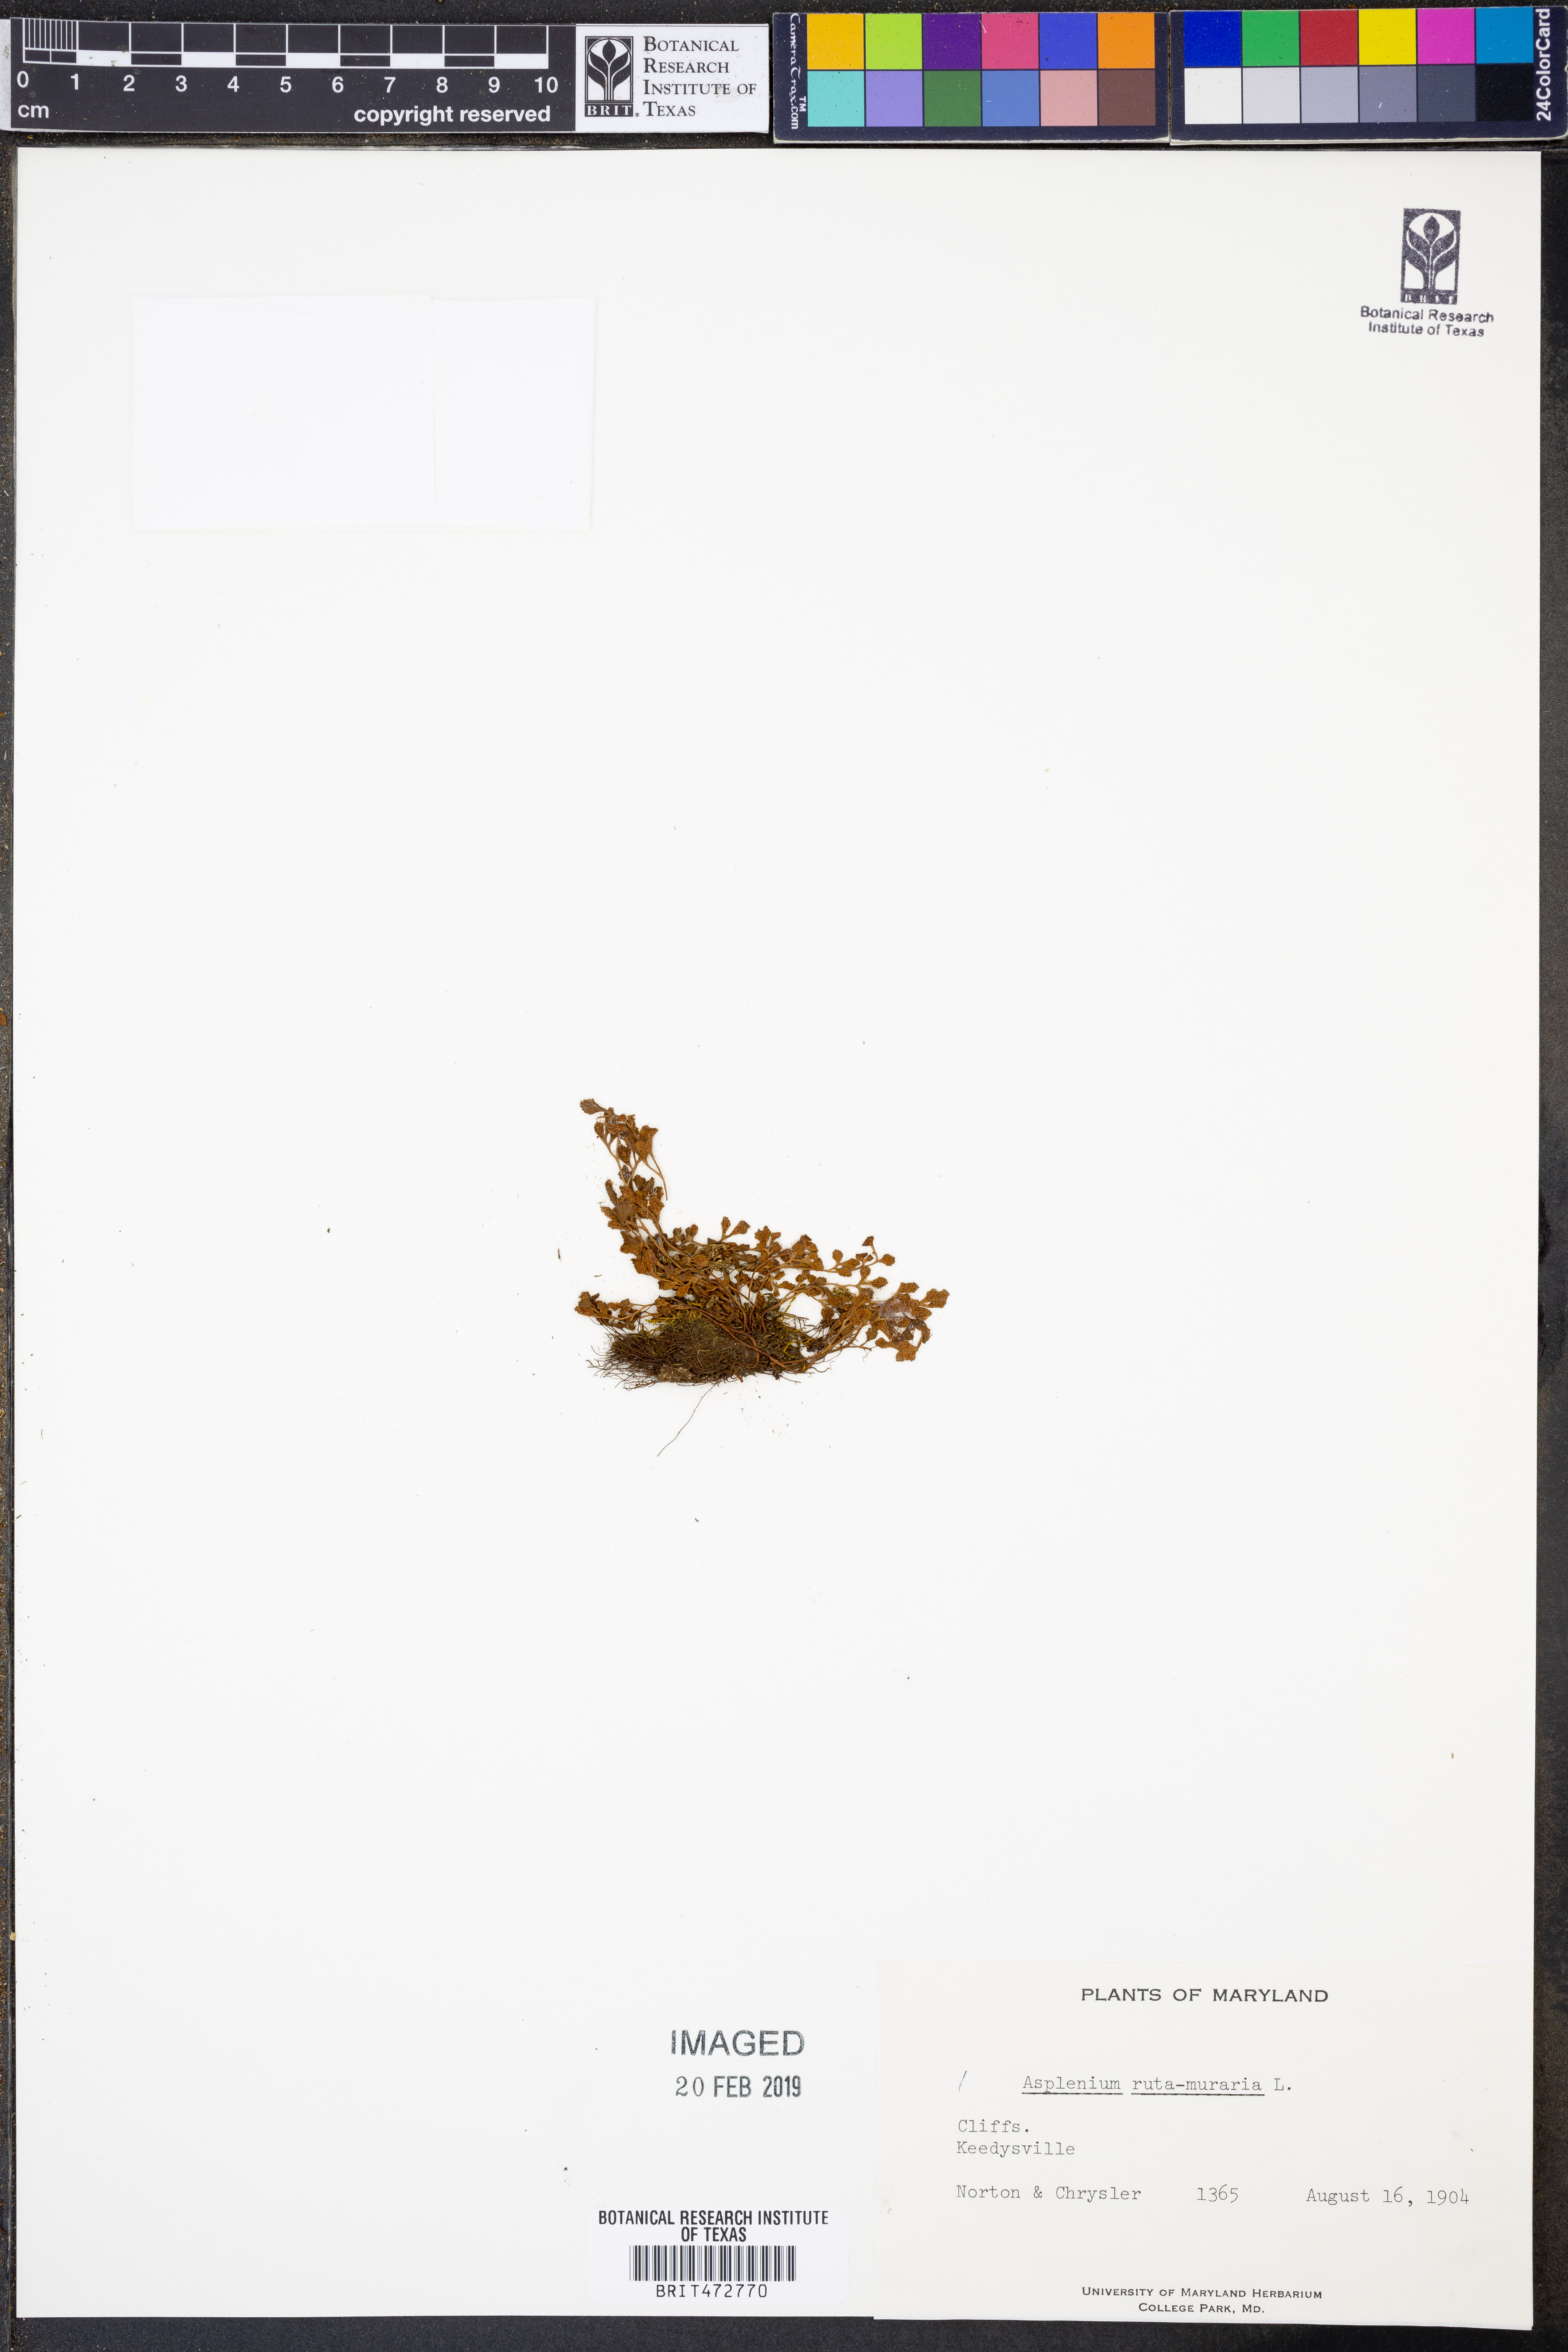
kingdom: Plantae
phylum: Tracheophyta
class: Polypodiopsida
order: Polypodiales
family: Aspleniaceae
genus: Asplenium
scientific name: Asplenium ruta-muraria
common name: Wall-rue
